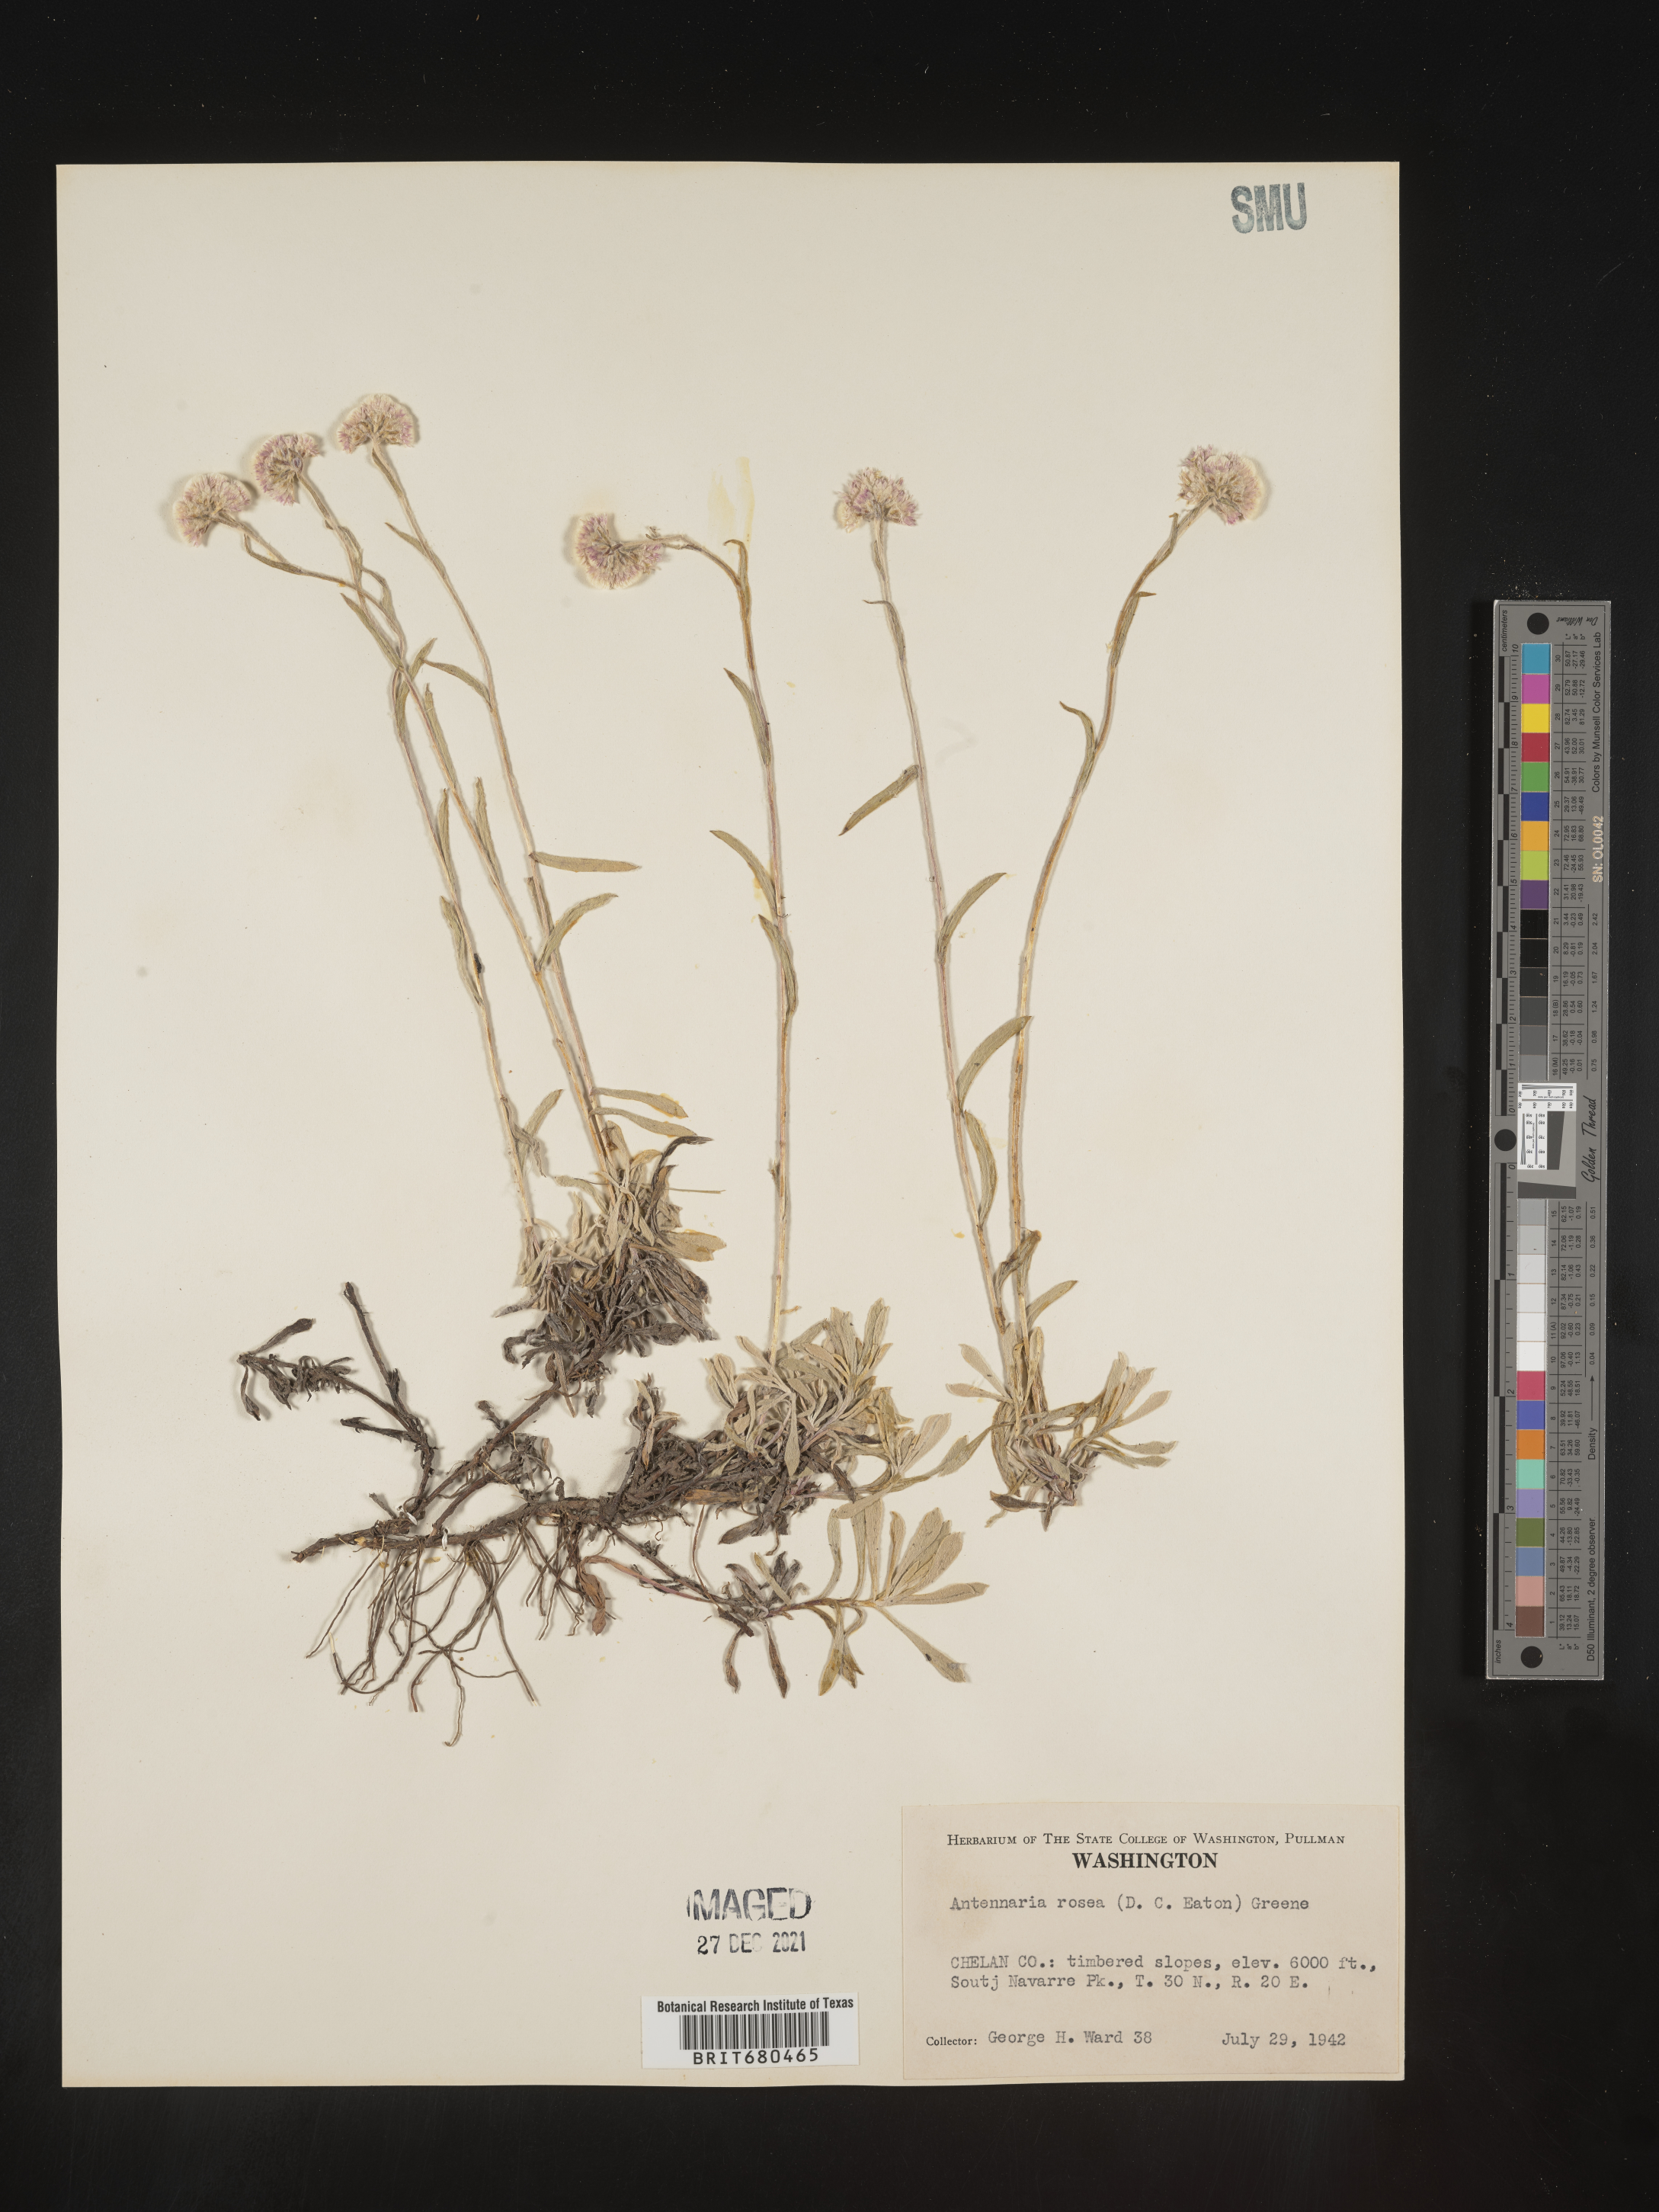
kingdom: Plantae
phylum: Tracheophyta
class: Magnoliopsida
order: Asterales
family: Asteraceae
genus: Antennaria
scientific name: Antennaria rosea
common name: Rosy pussytoes
